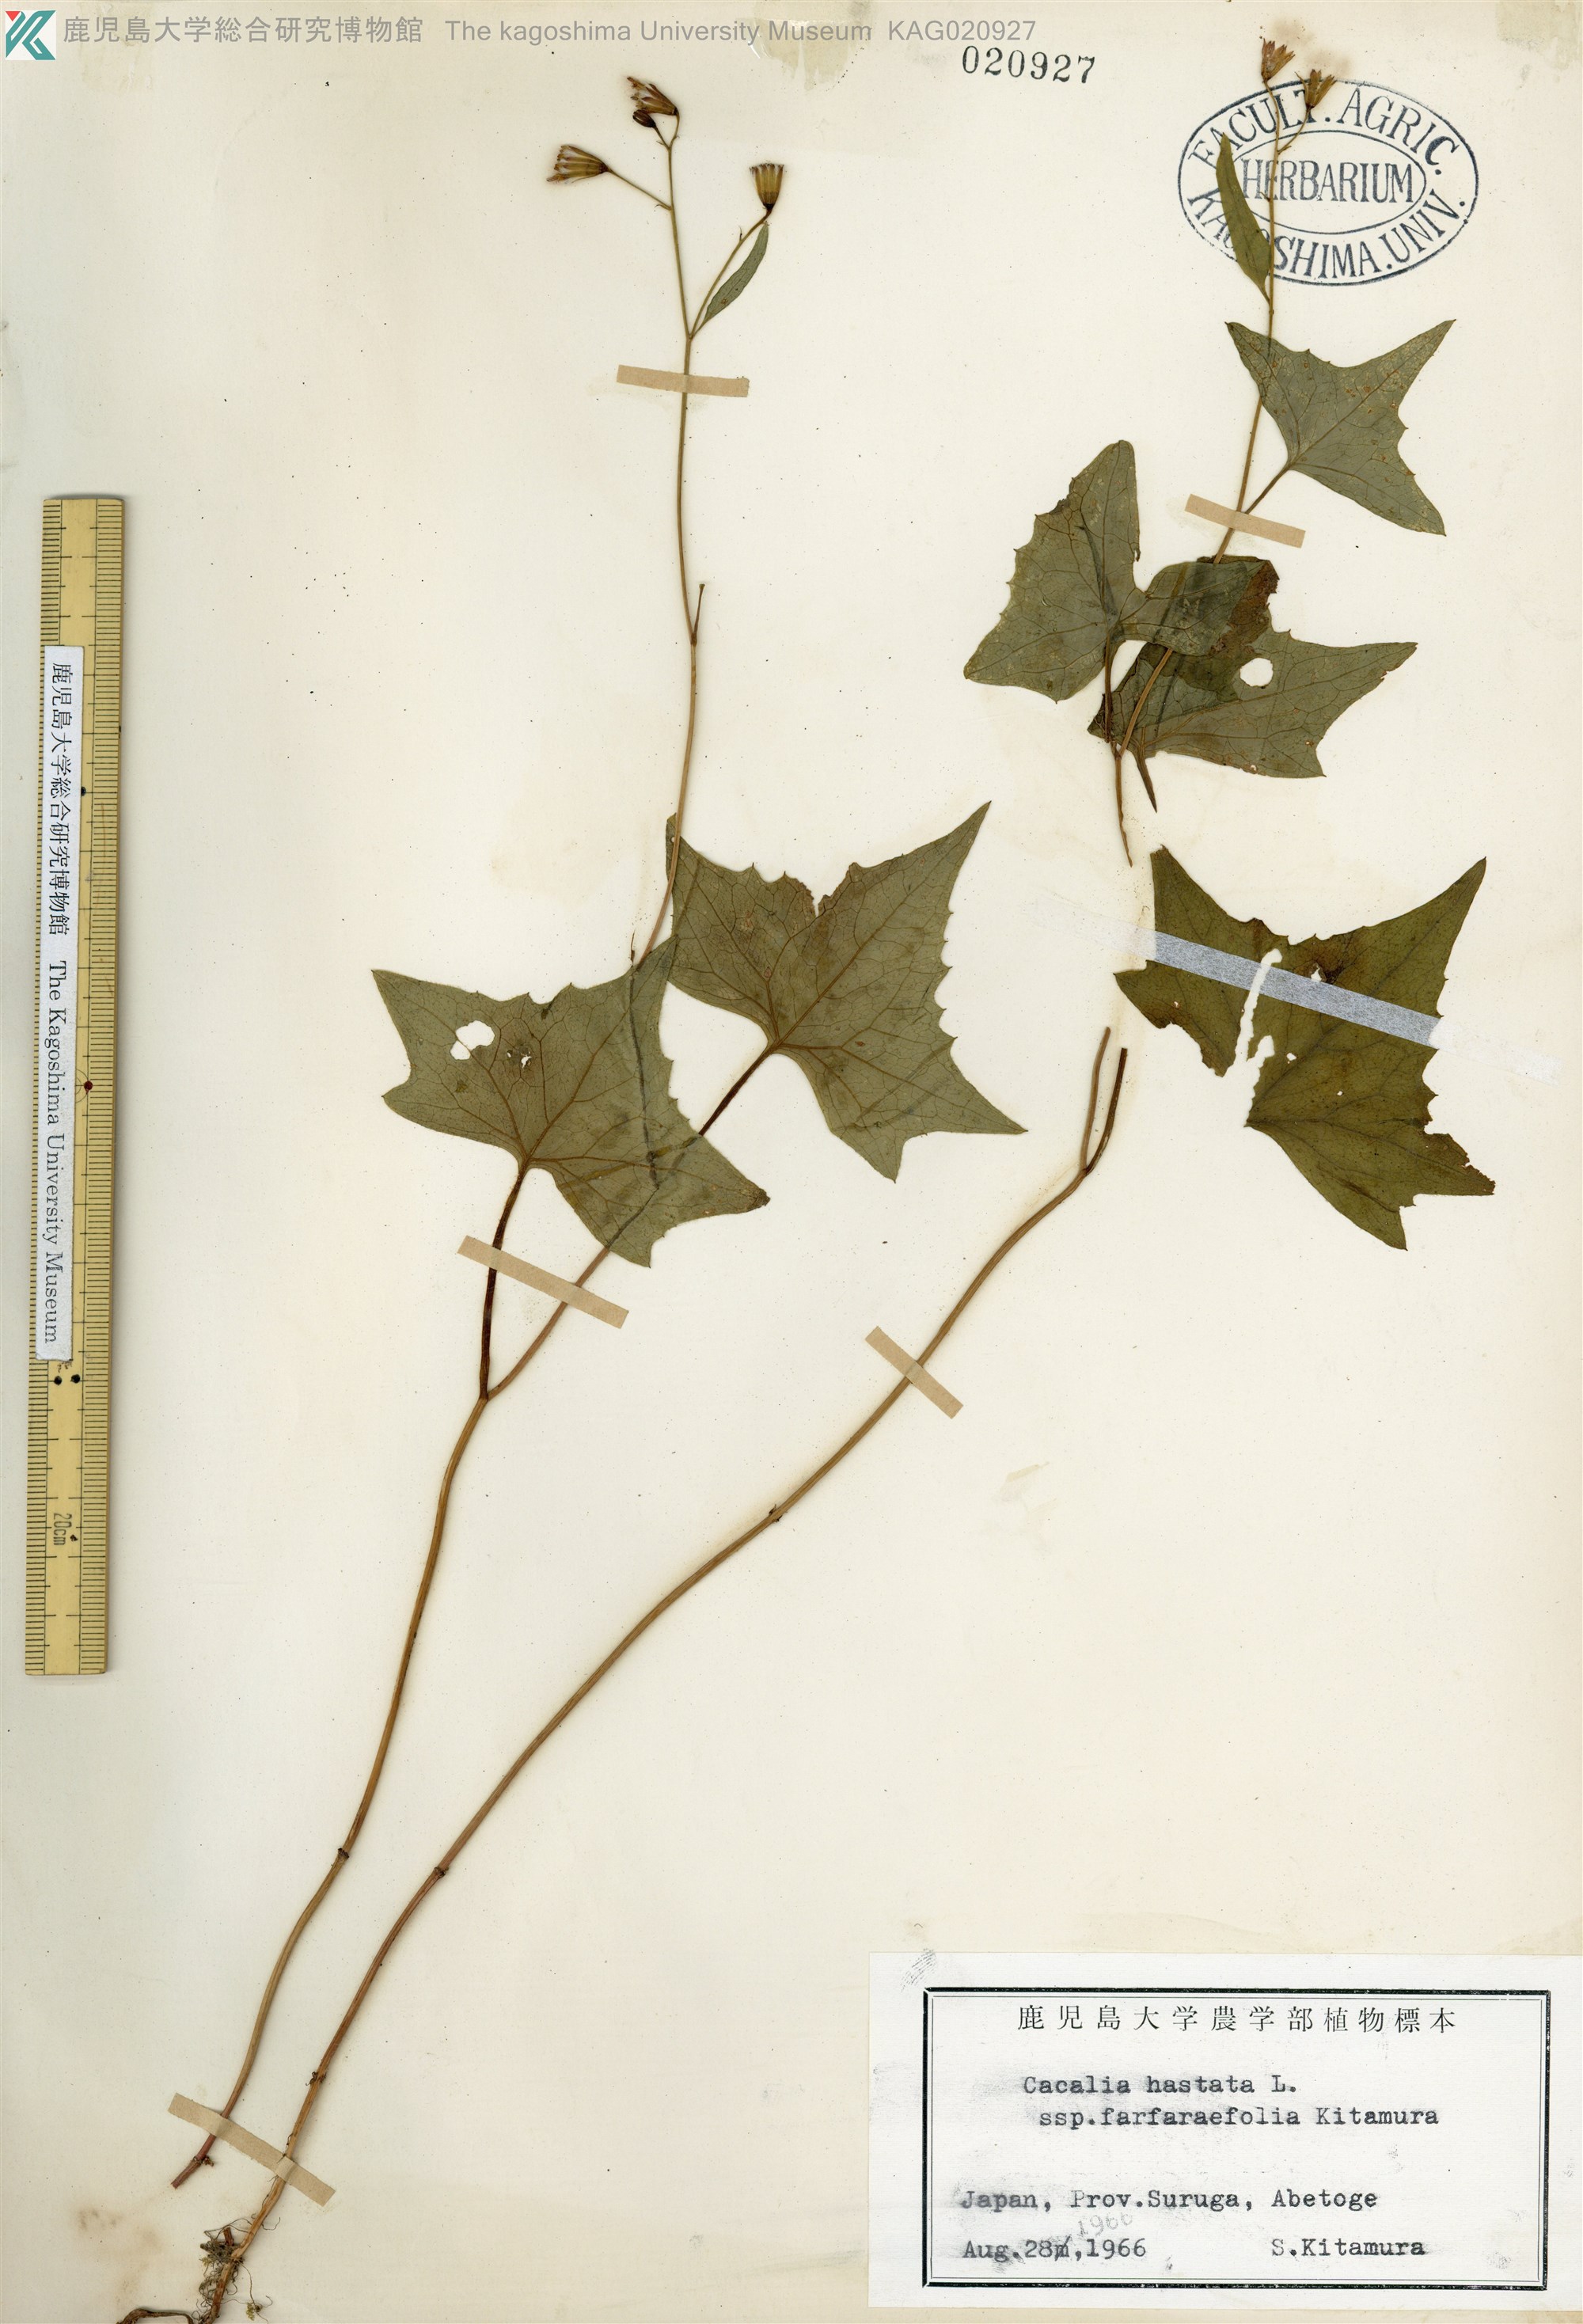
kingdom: Plantae
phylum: Tracheophyta
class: Magnoliopsida
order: Asterales
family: Asteraceae
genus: Parasenecio
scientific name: Parasenecio maximowicziana
